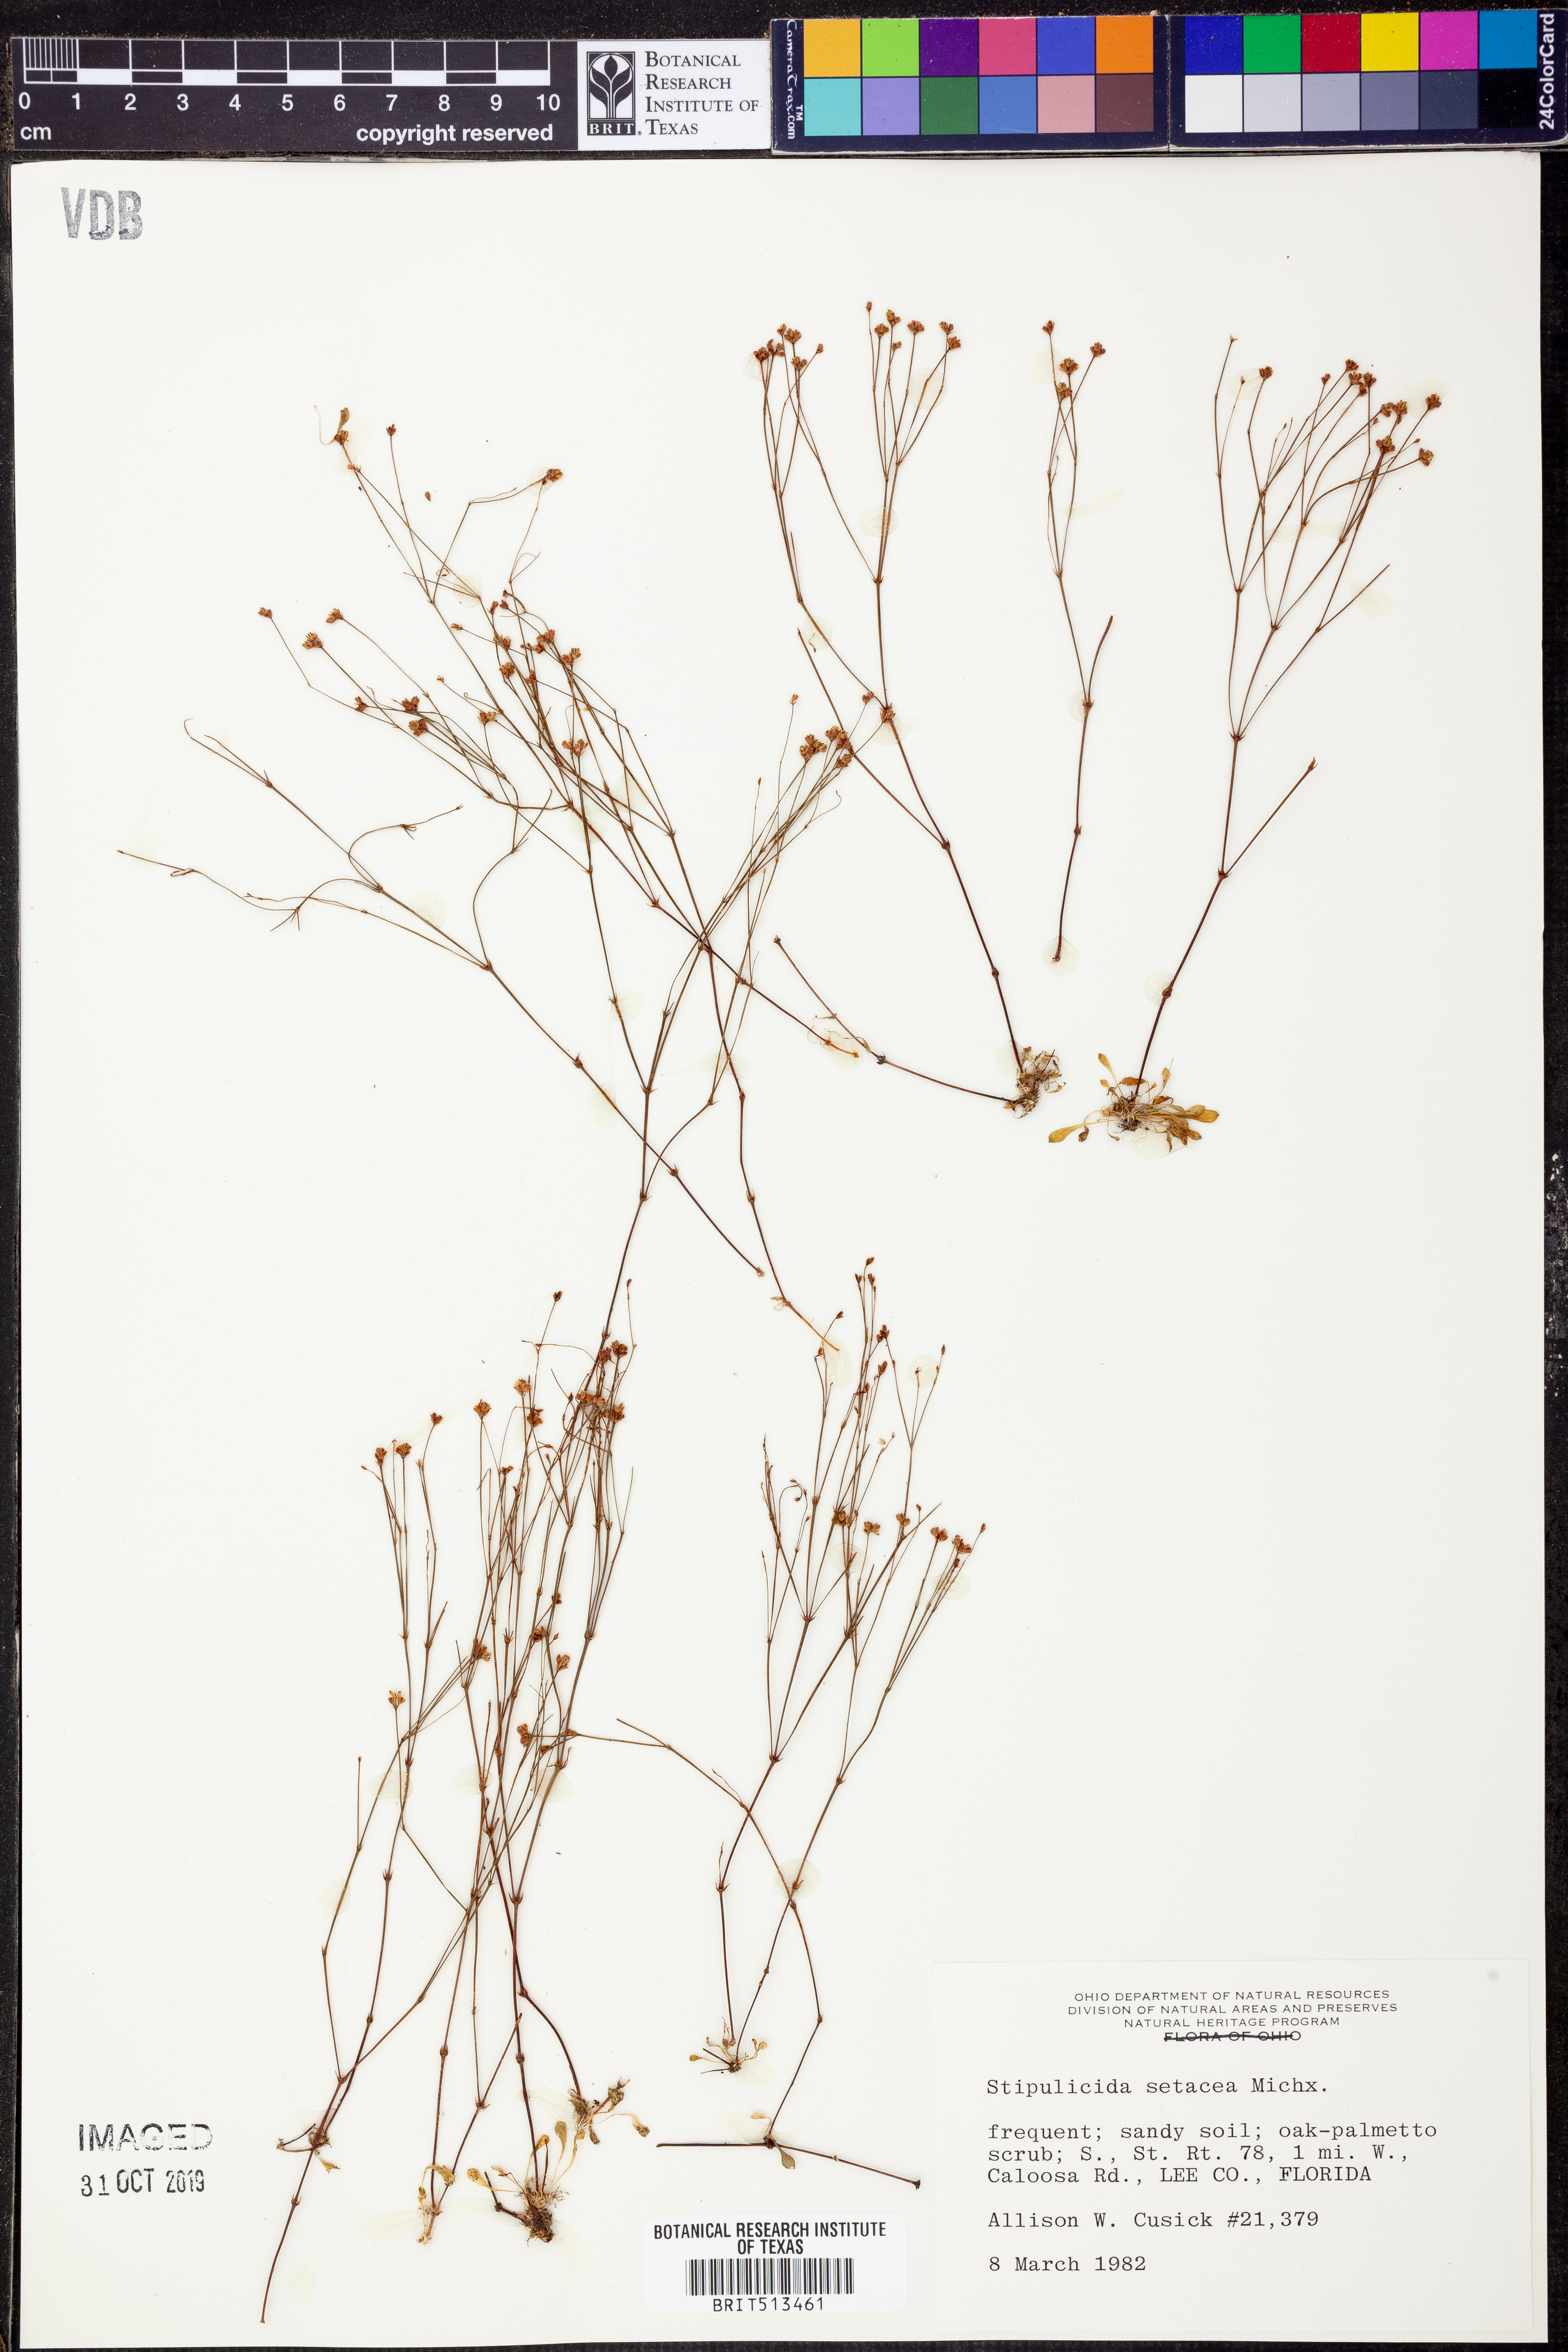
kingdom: Plantae
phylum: Tracheophyta
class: Magnoliopsida
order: Caryophyllales
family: Caryophyllaceae
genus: Stipulicida
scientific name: Stipulicida setacea
